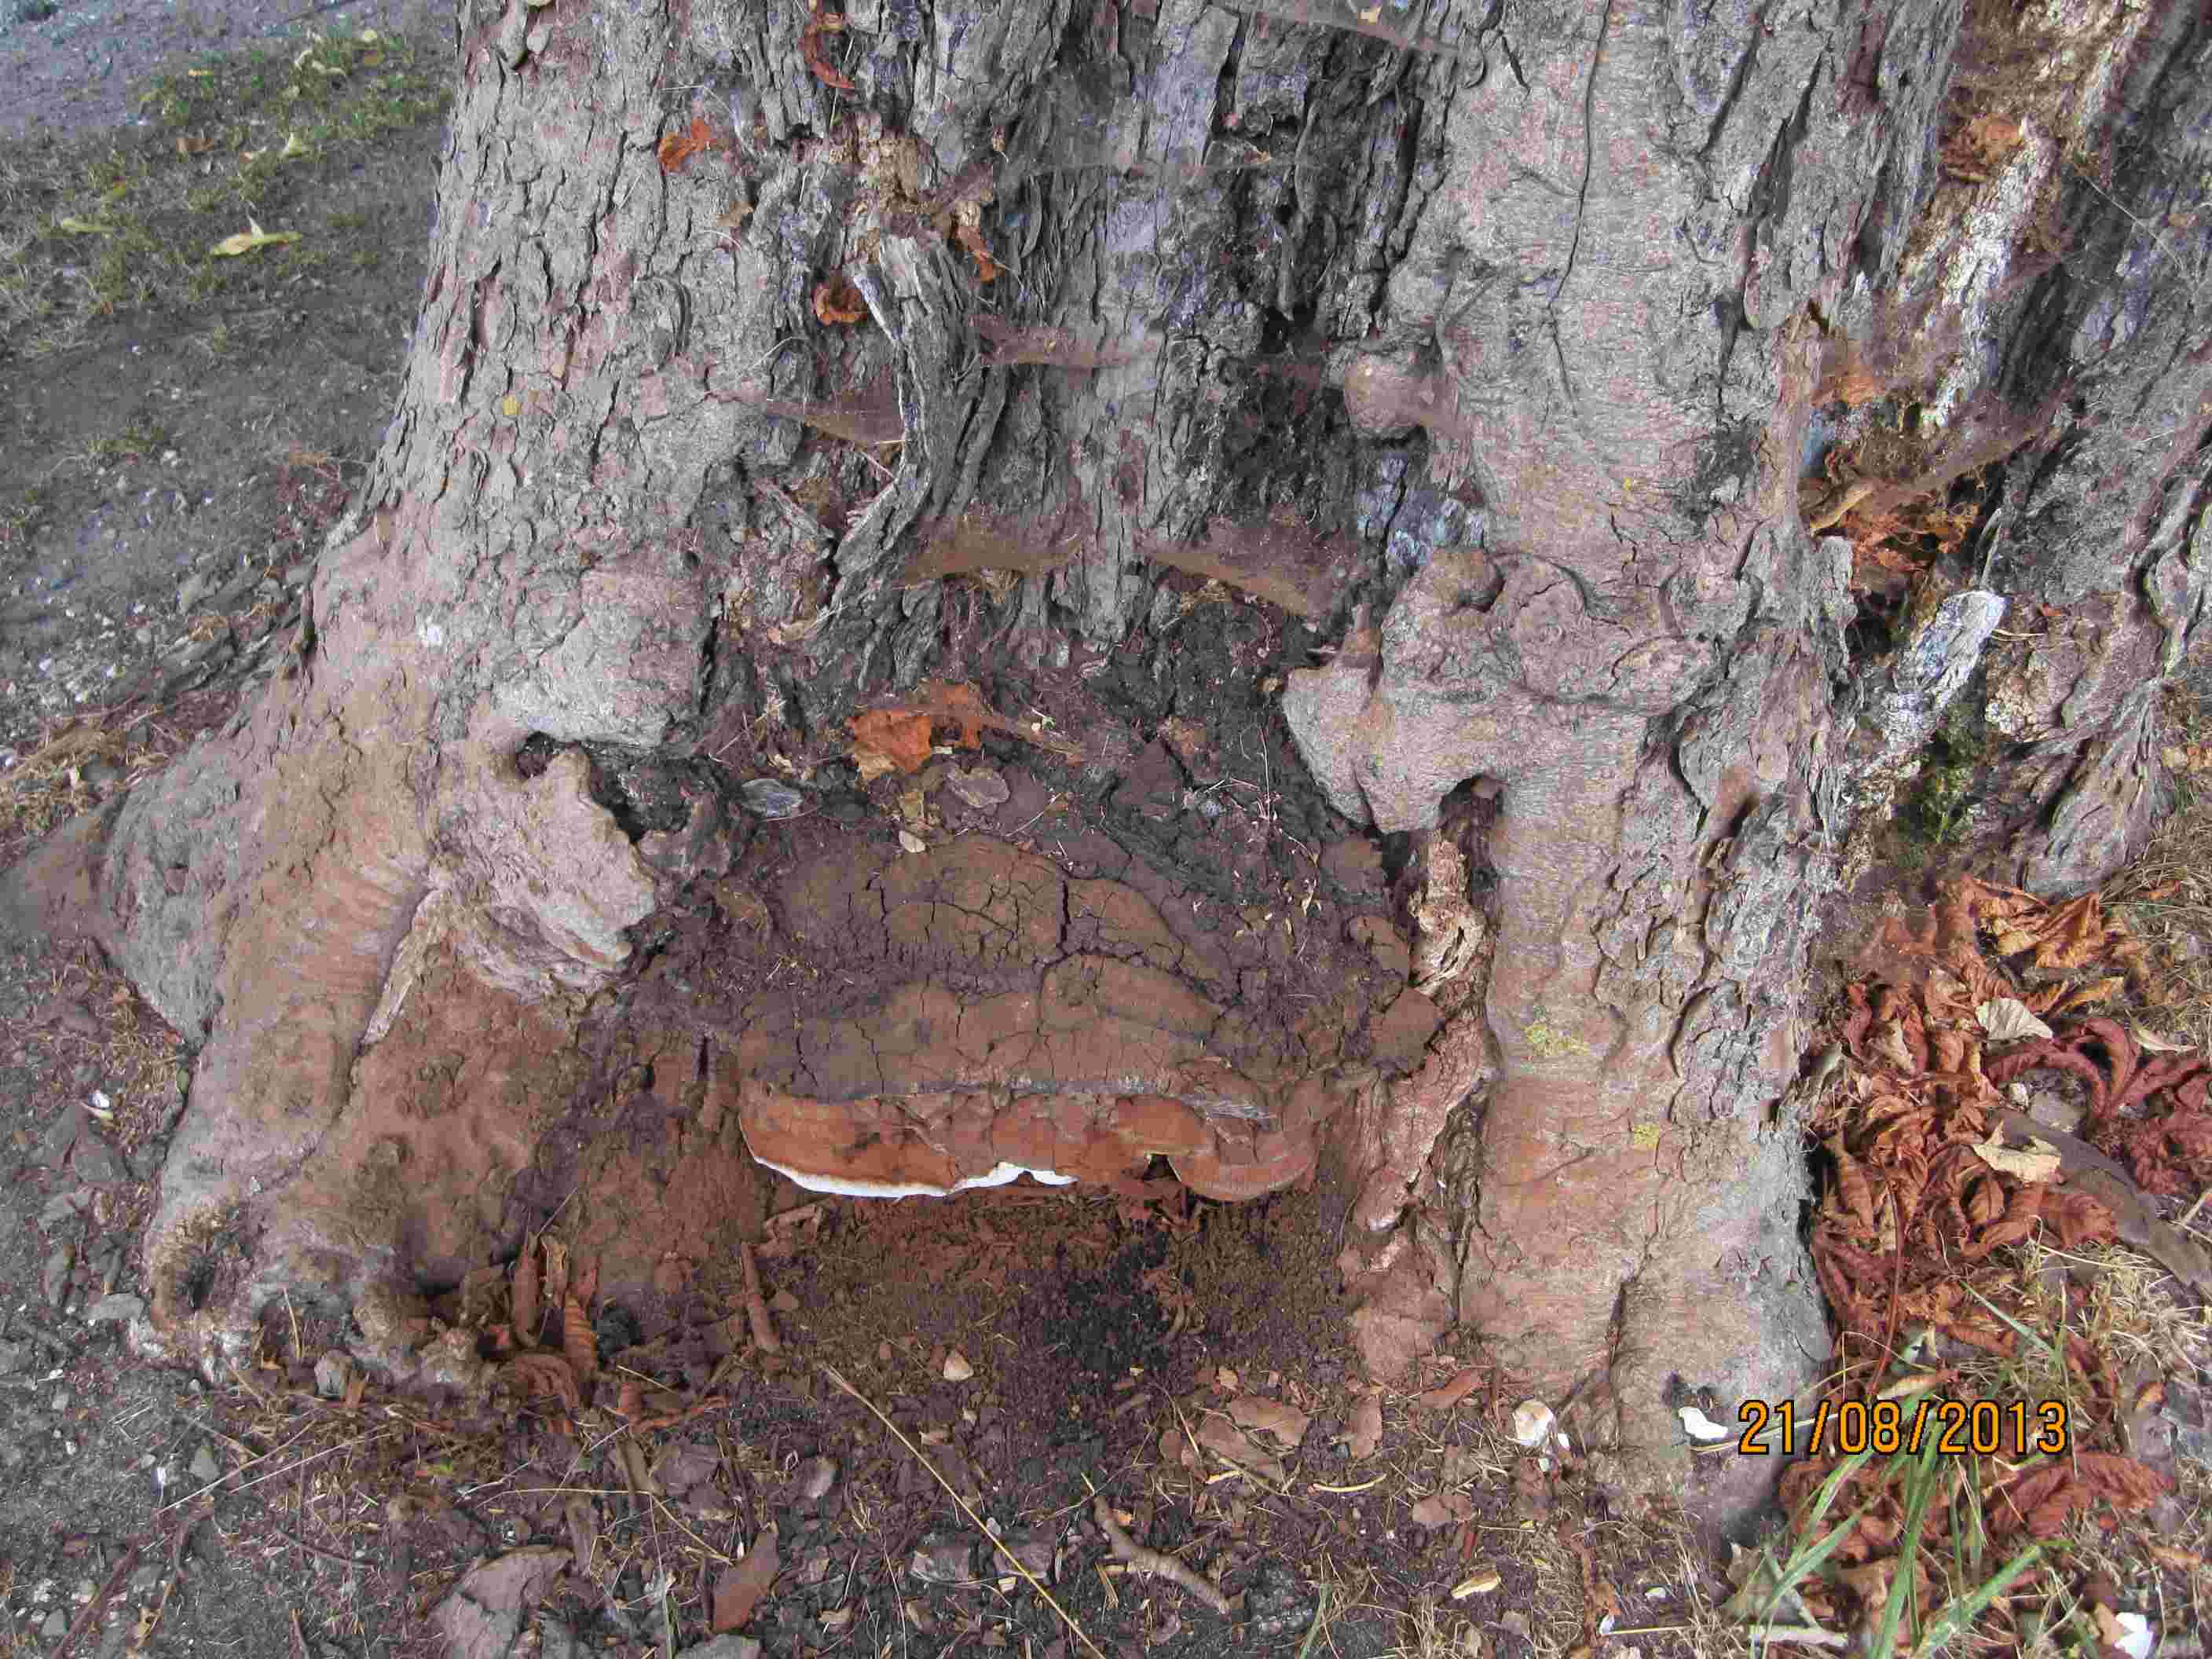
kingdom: Fungi
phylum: Basidiomycota
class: Agaricomycetes
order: Polyporales
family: Polyporaceae
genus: Ganoderma
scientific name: Ganoderma adspersum
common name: grov lakporesvamp
